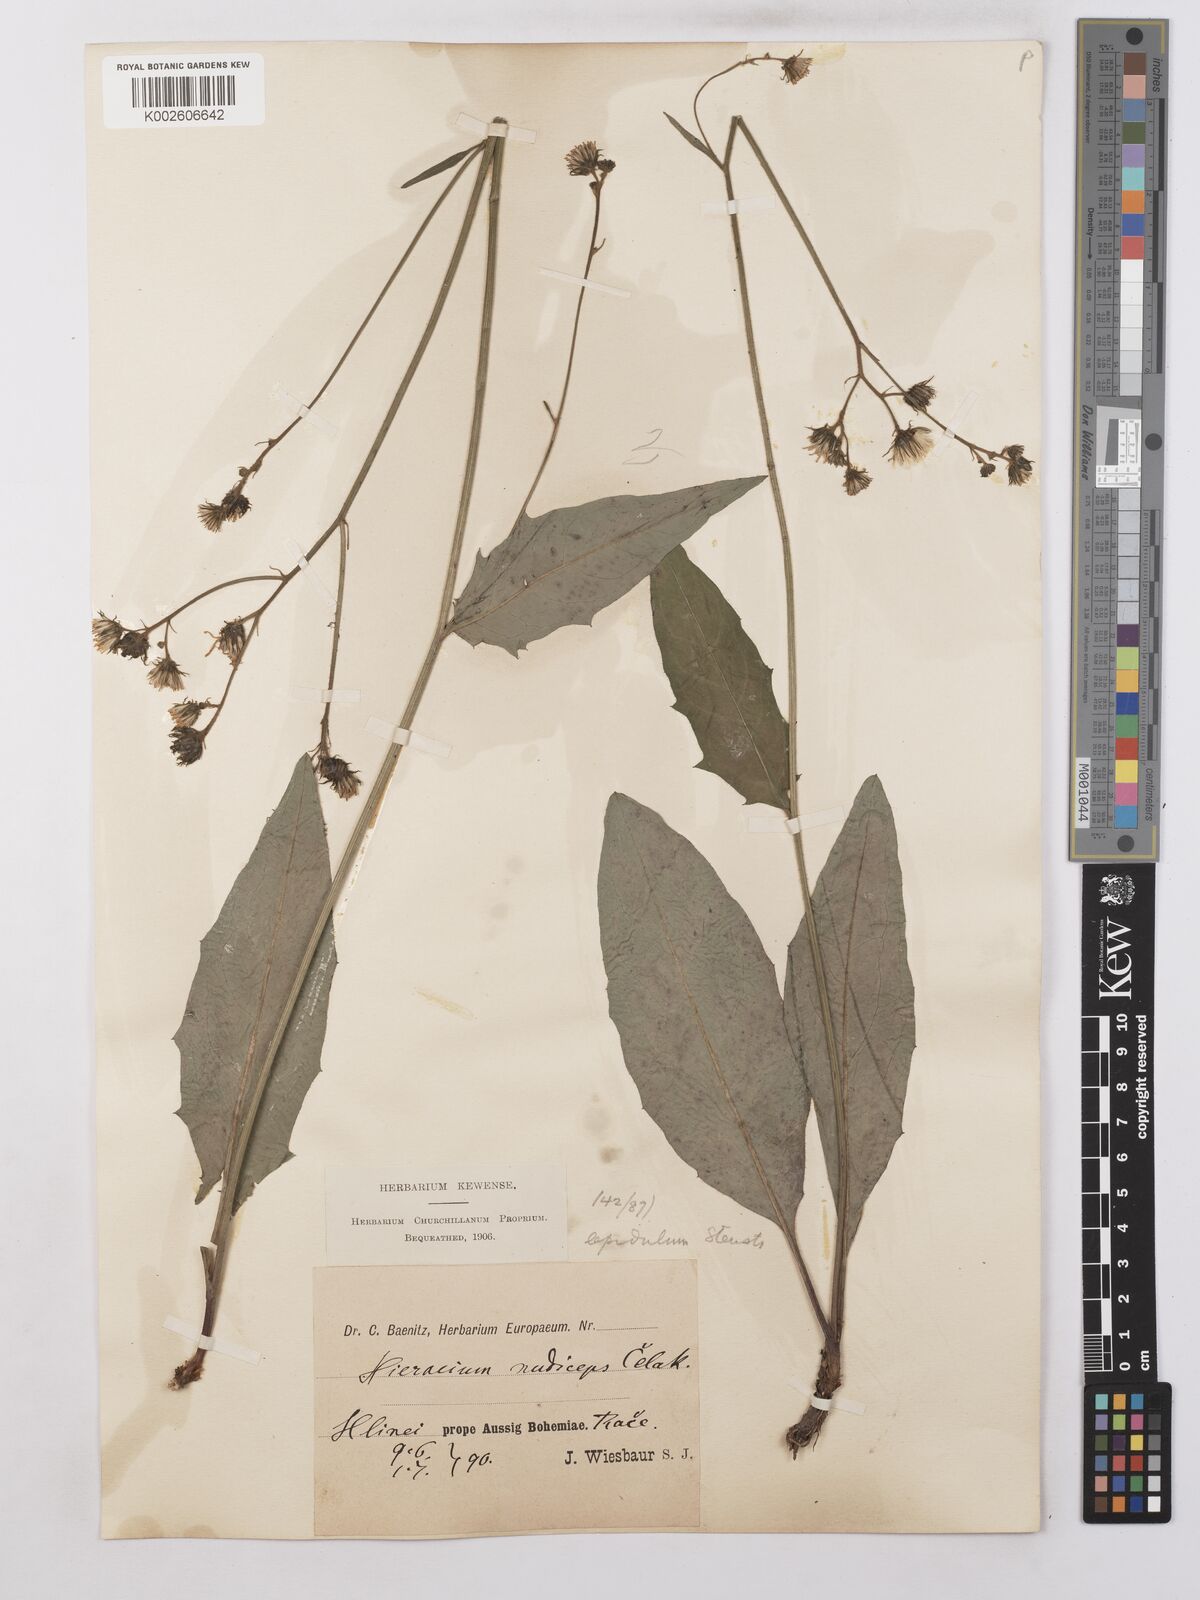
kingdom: Plantae
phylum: Tracheophyta
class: Magnoliopsida
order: Asterales
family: Asteraceae
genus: Hieracium
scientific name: Hieracium lachenalii
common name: Common hawkweed
